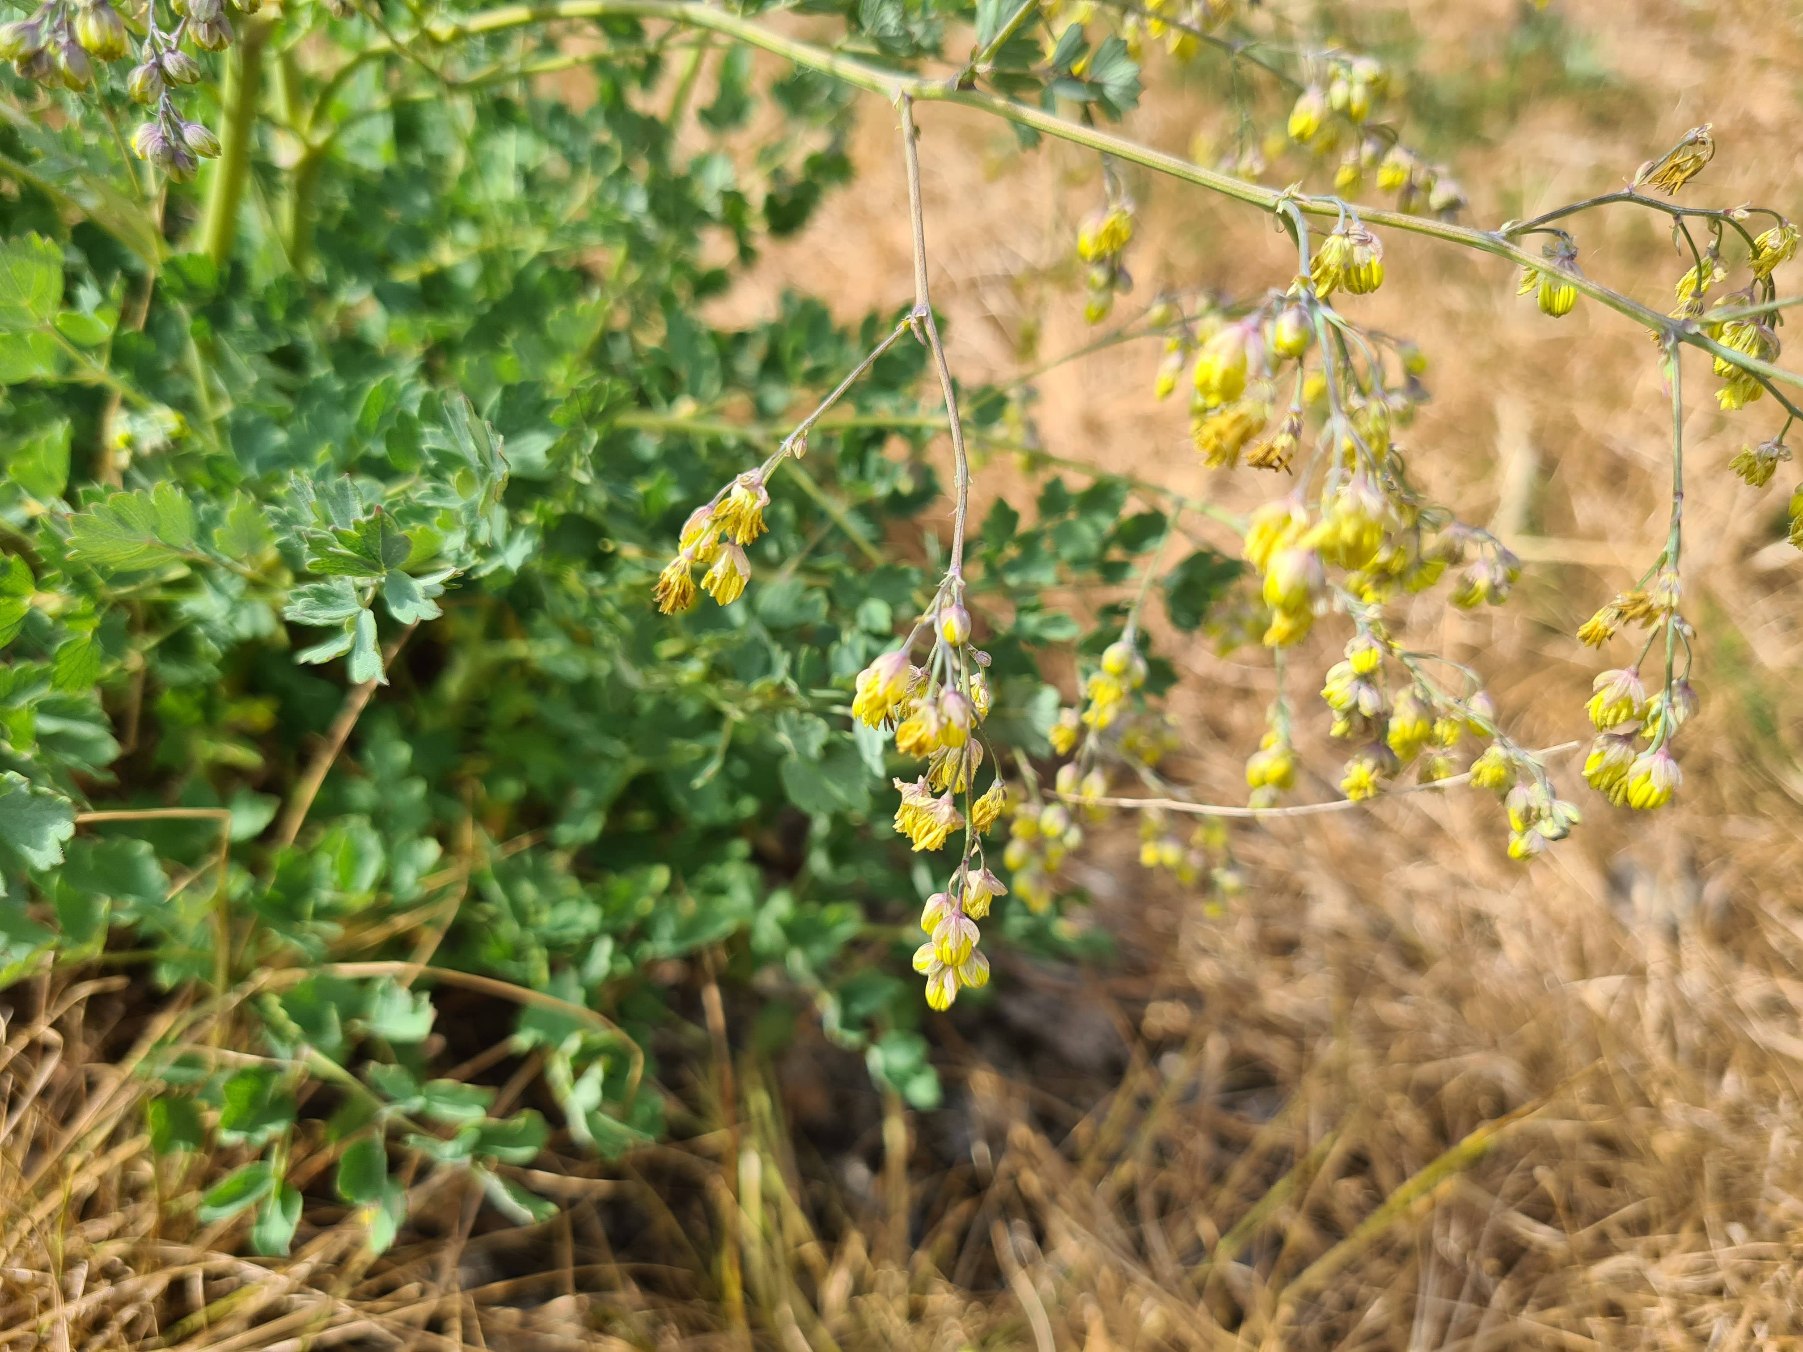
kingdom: Plantae
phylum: Tracheophyta
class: Magnoliopsida
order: Ranunculales
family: Ranunculaceae
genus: Thalictrum
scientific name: Thalictrum minus
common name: Sand-frøstjerne
